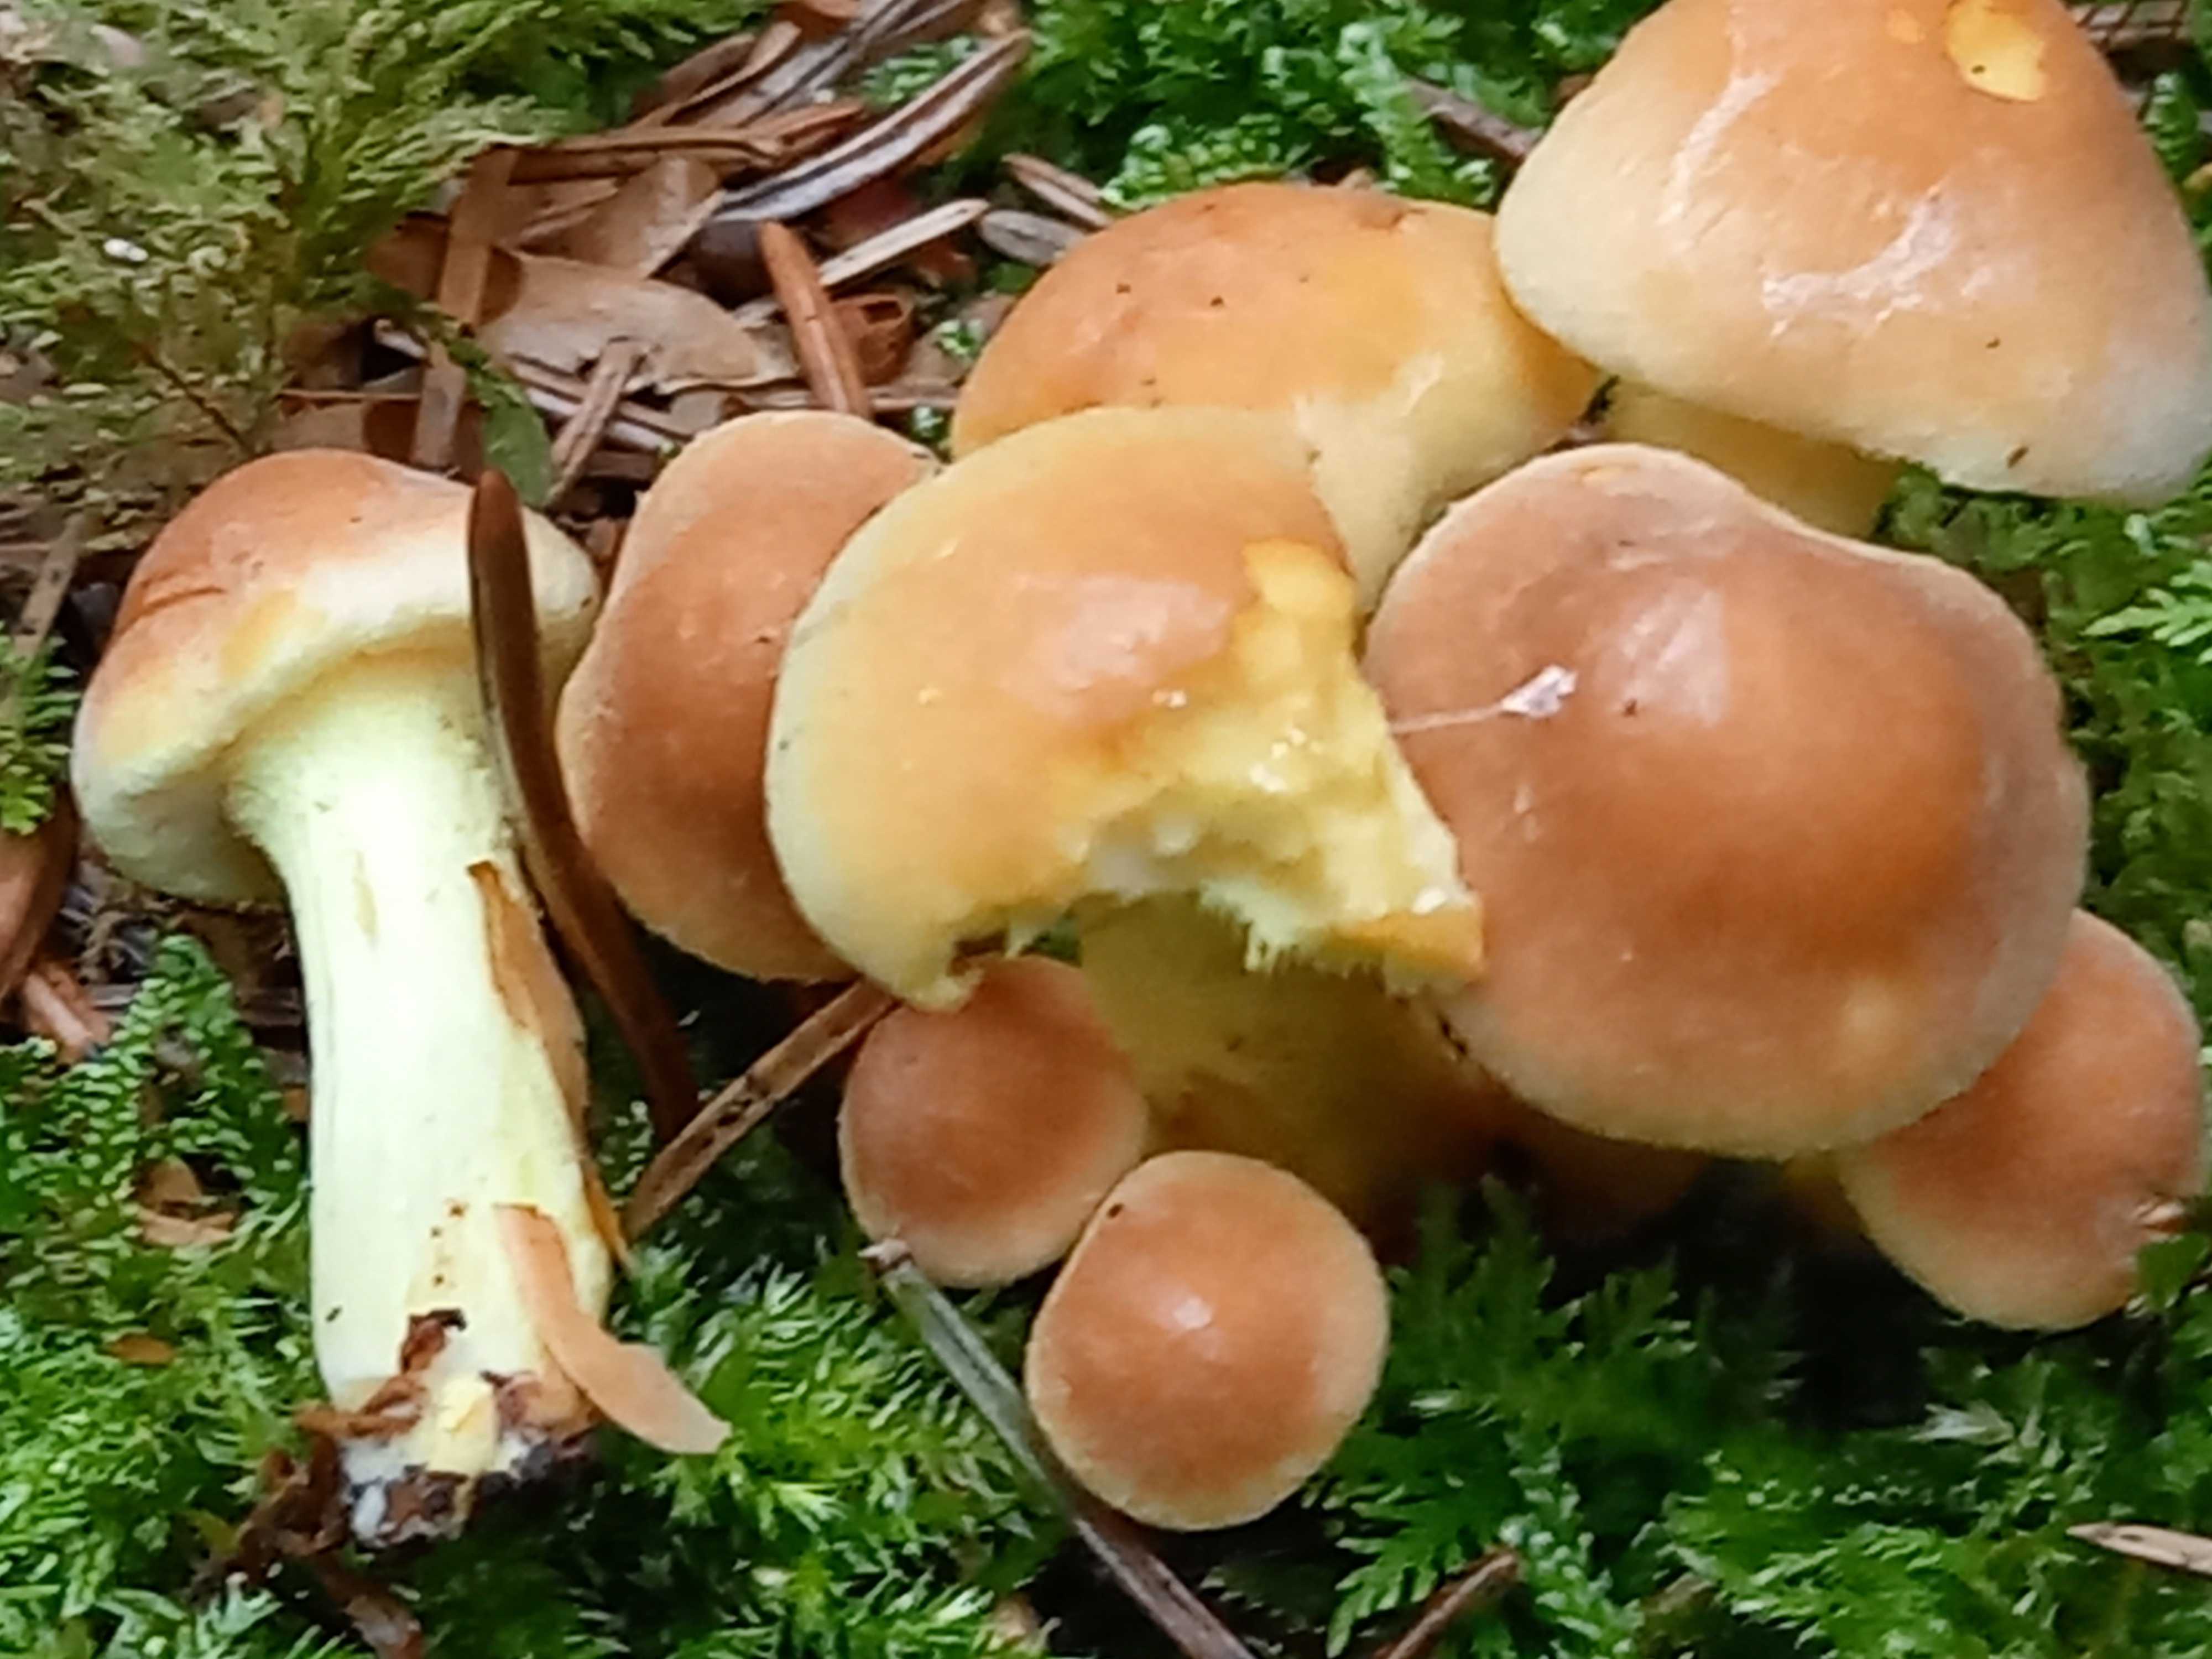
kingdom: Fungi
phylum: Basidiomycota
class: Agaricomycetes
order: Agaricales
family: Strophariaceae
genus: Hypholoma
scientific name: Hypholoma fasciculare
